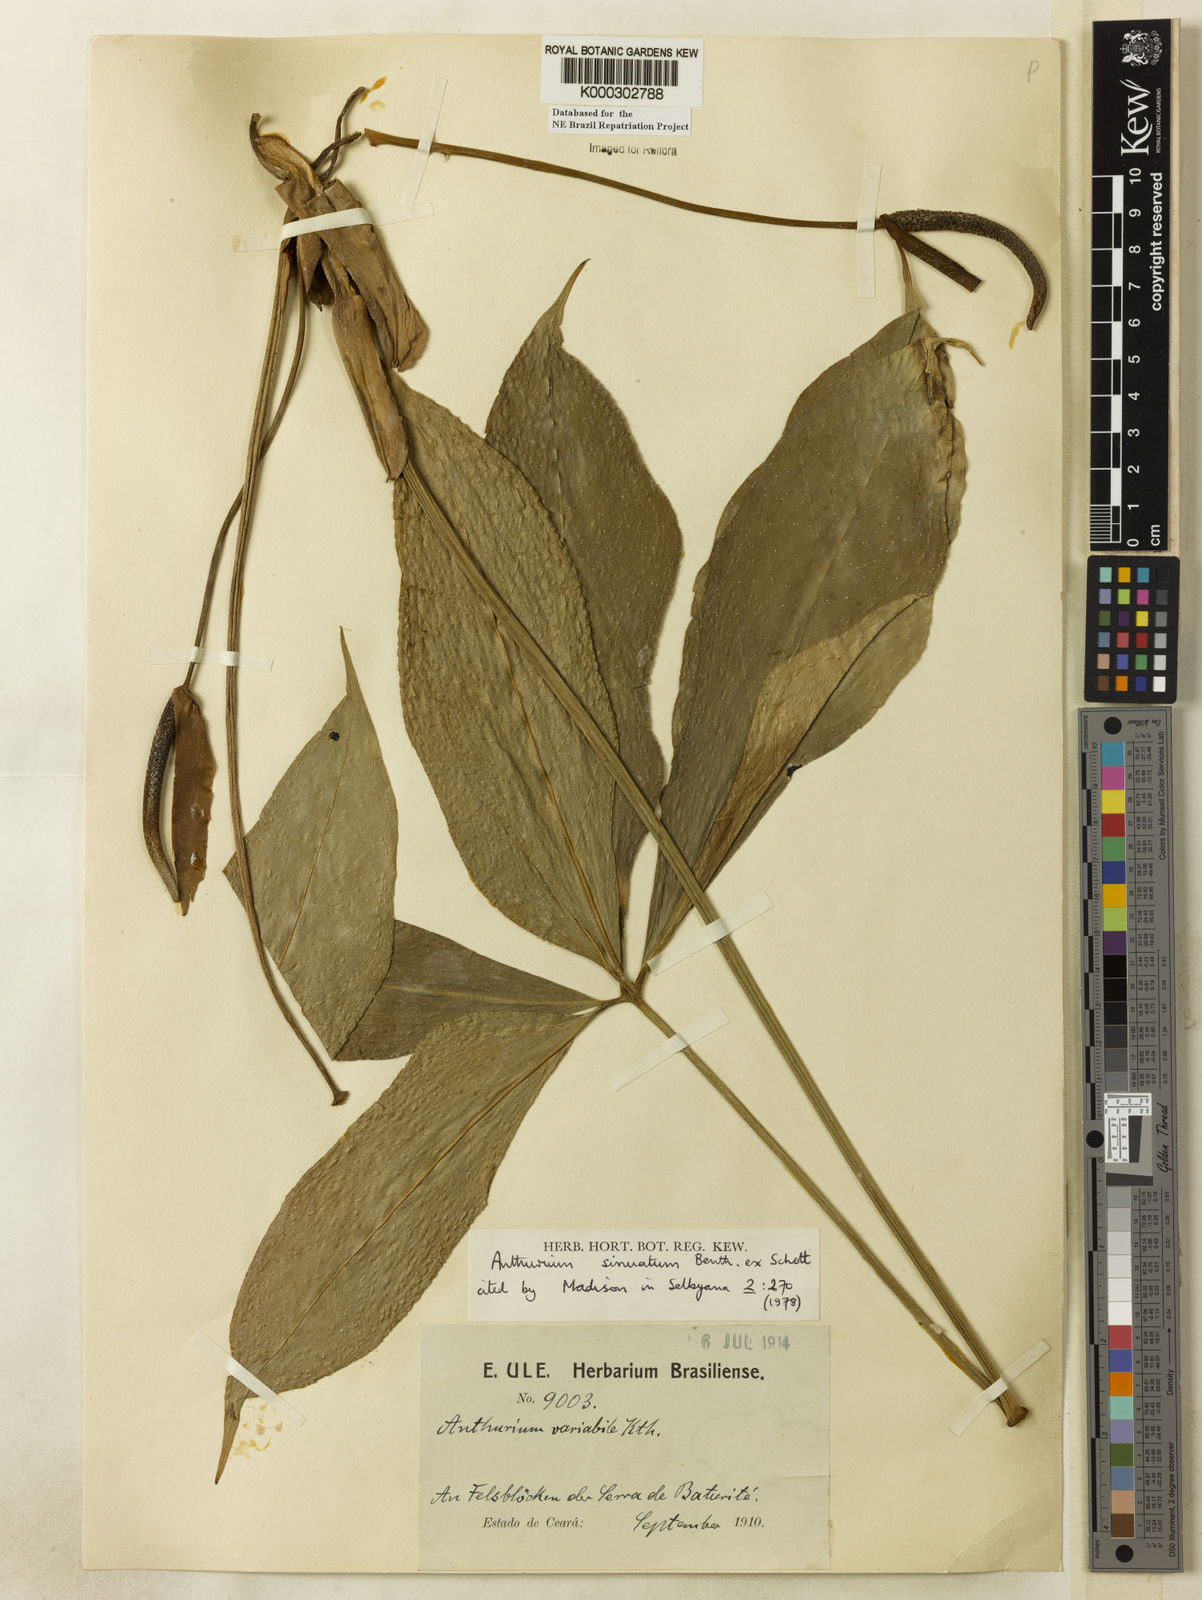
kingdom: Plantae
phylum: Tracheophyta
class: Liliopsida
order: Alismatales
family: Araceae
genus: Anthurium
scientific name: Anthurium sinuatum
